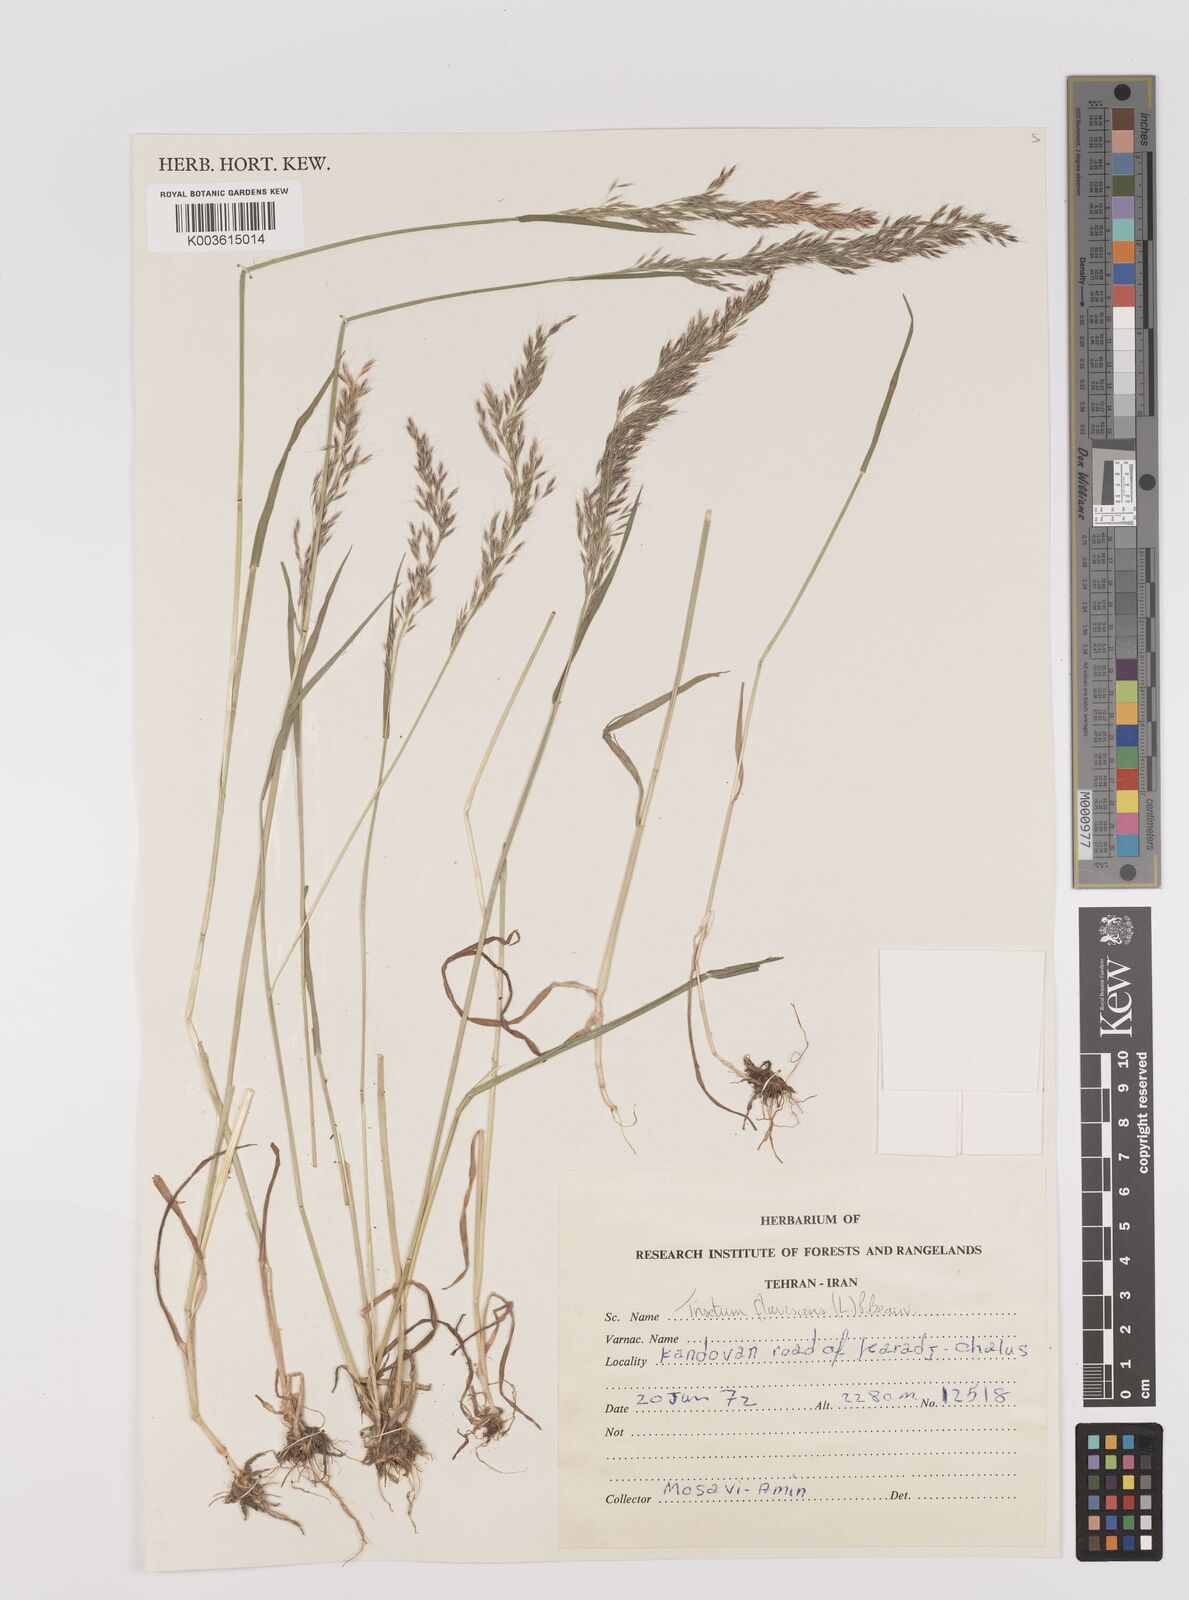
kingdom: Plantae
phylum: Tracheophyta
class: Liliopsida
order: Poales
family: Poaceae
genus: Trisetum
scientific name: Trisetum flavescens
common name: Yellow oat-grass
